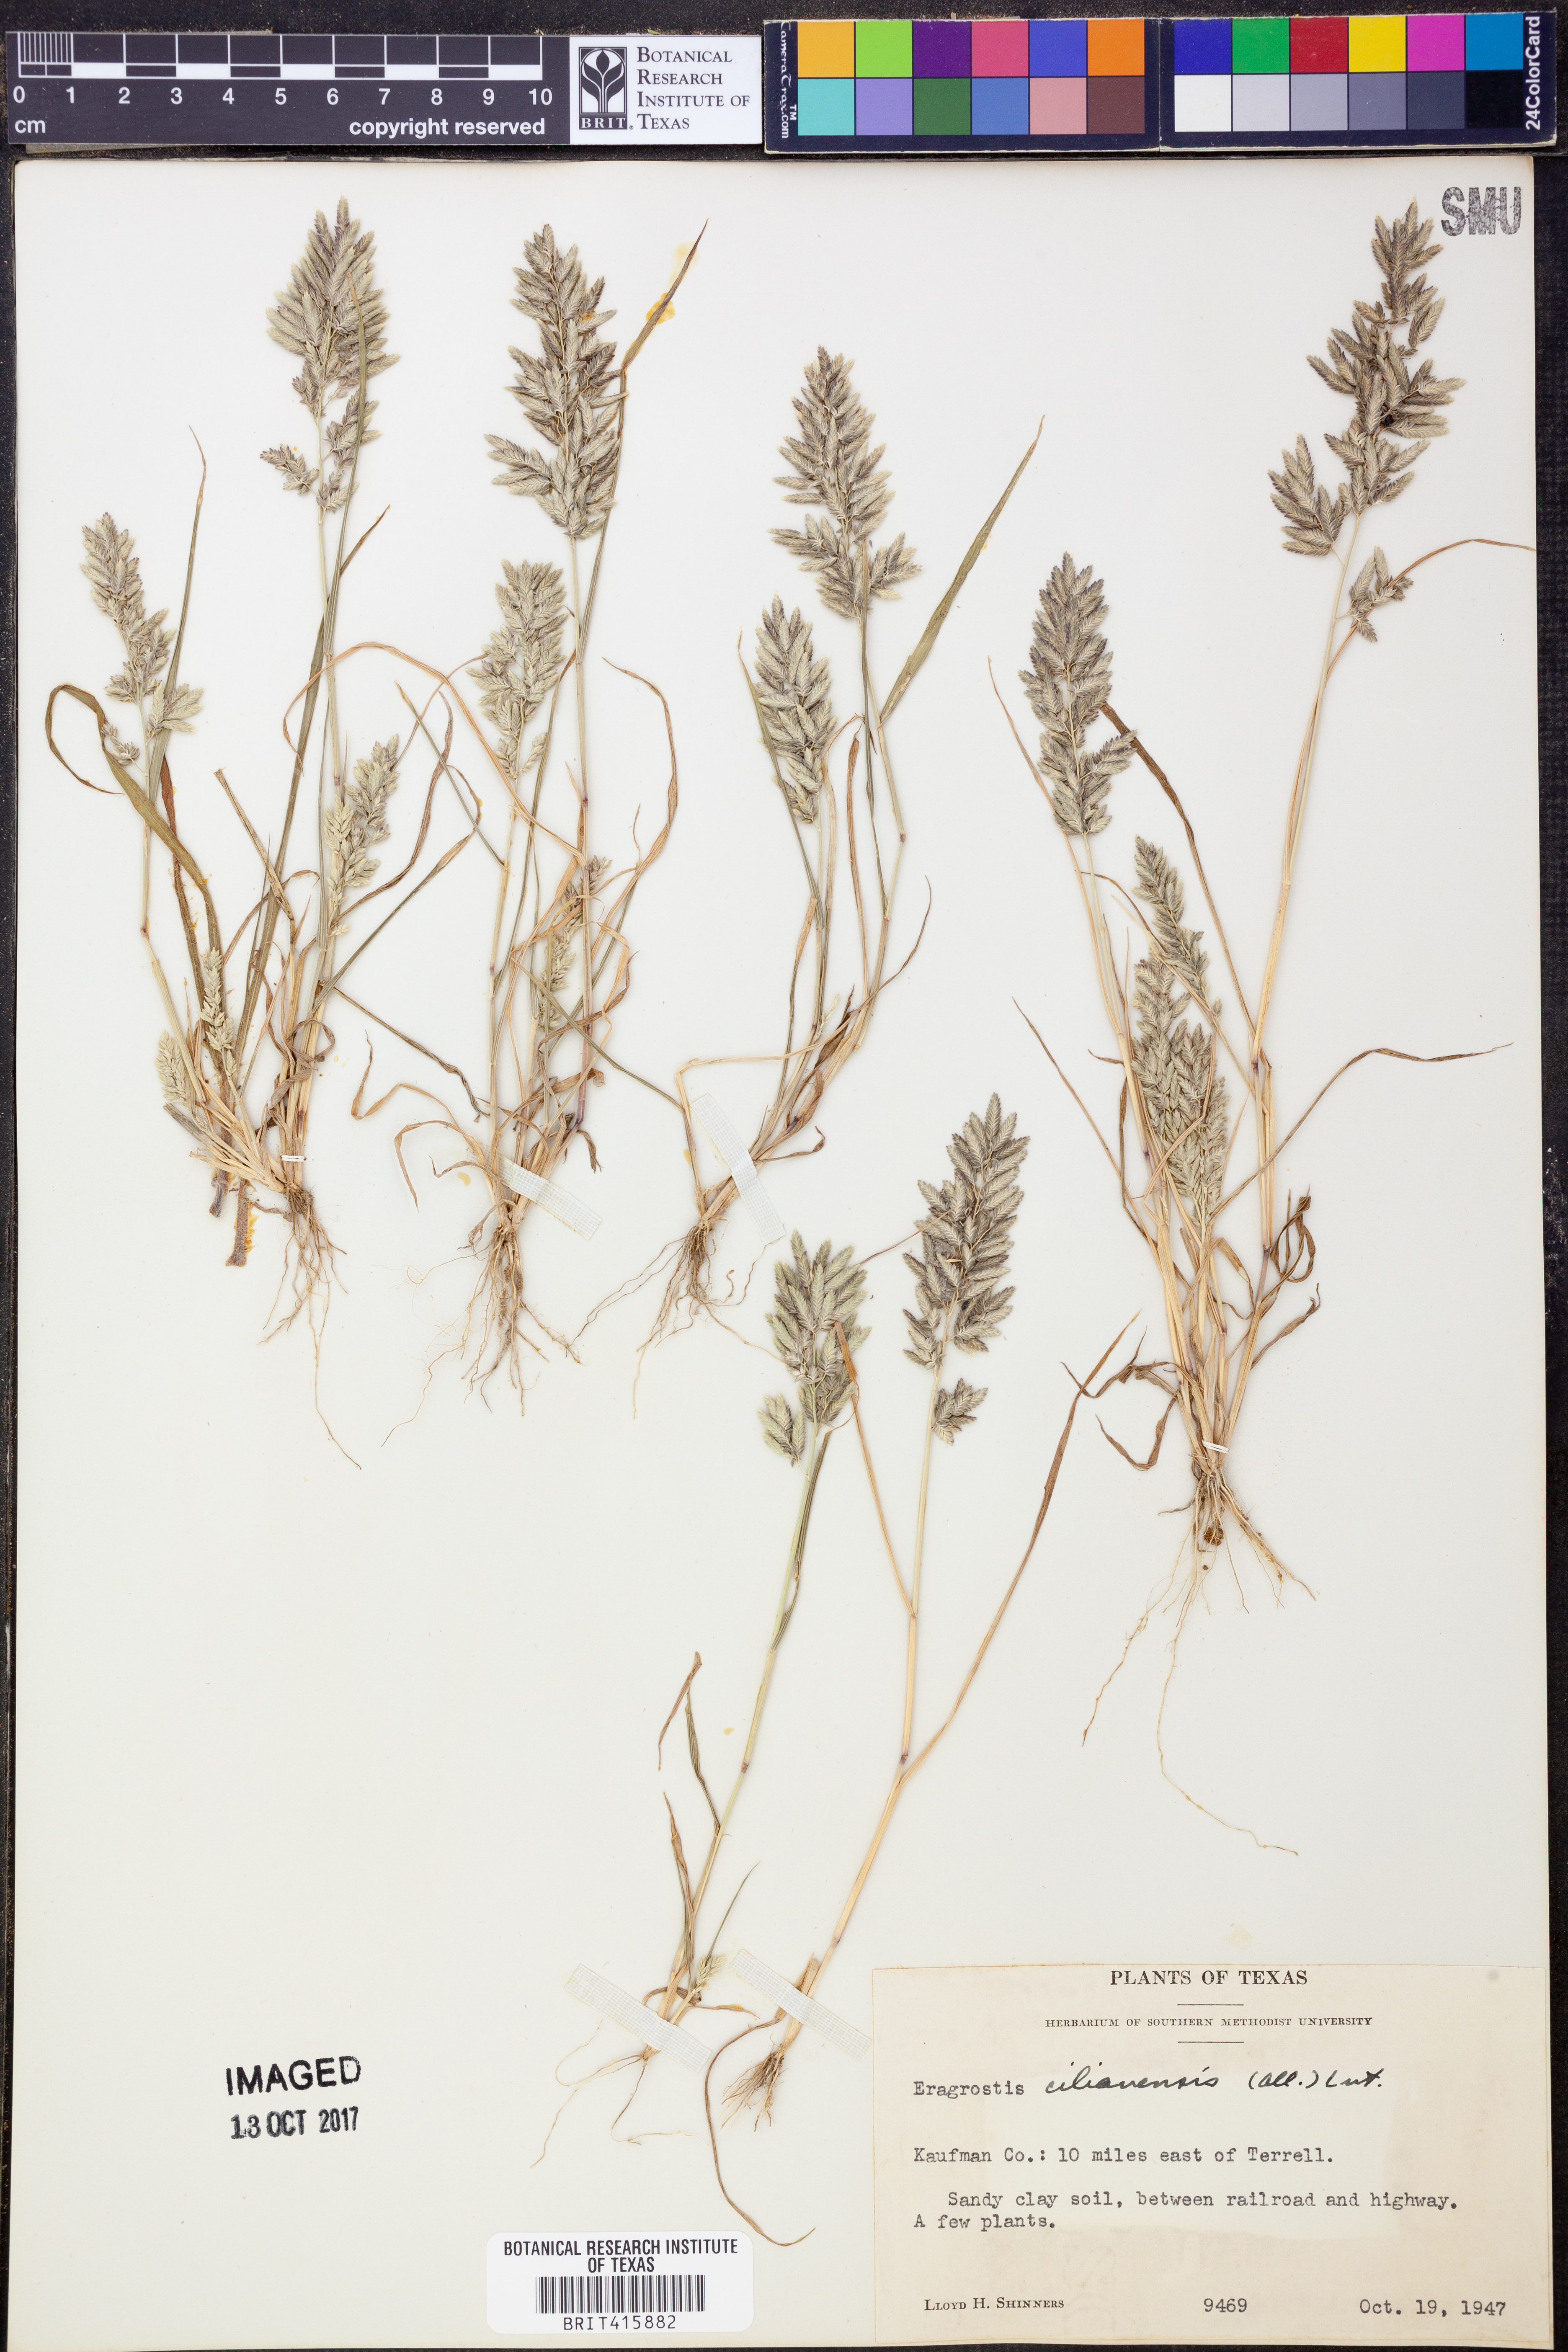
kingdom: Plantae
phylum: Tracheophyta
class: Liliopsida
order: Poales
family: Poaceae
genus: Eragrostis
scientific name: Eragrostis cilianensis
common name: Stinkgrass
